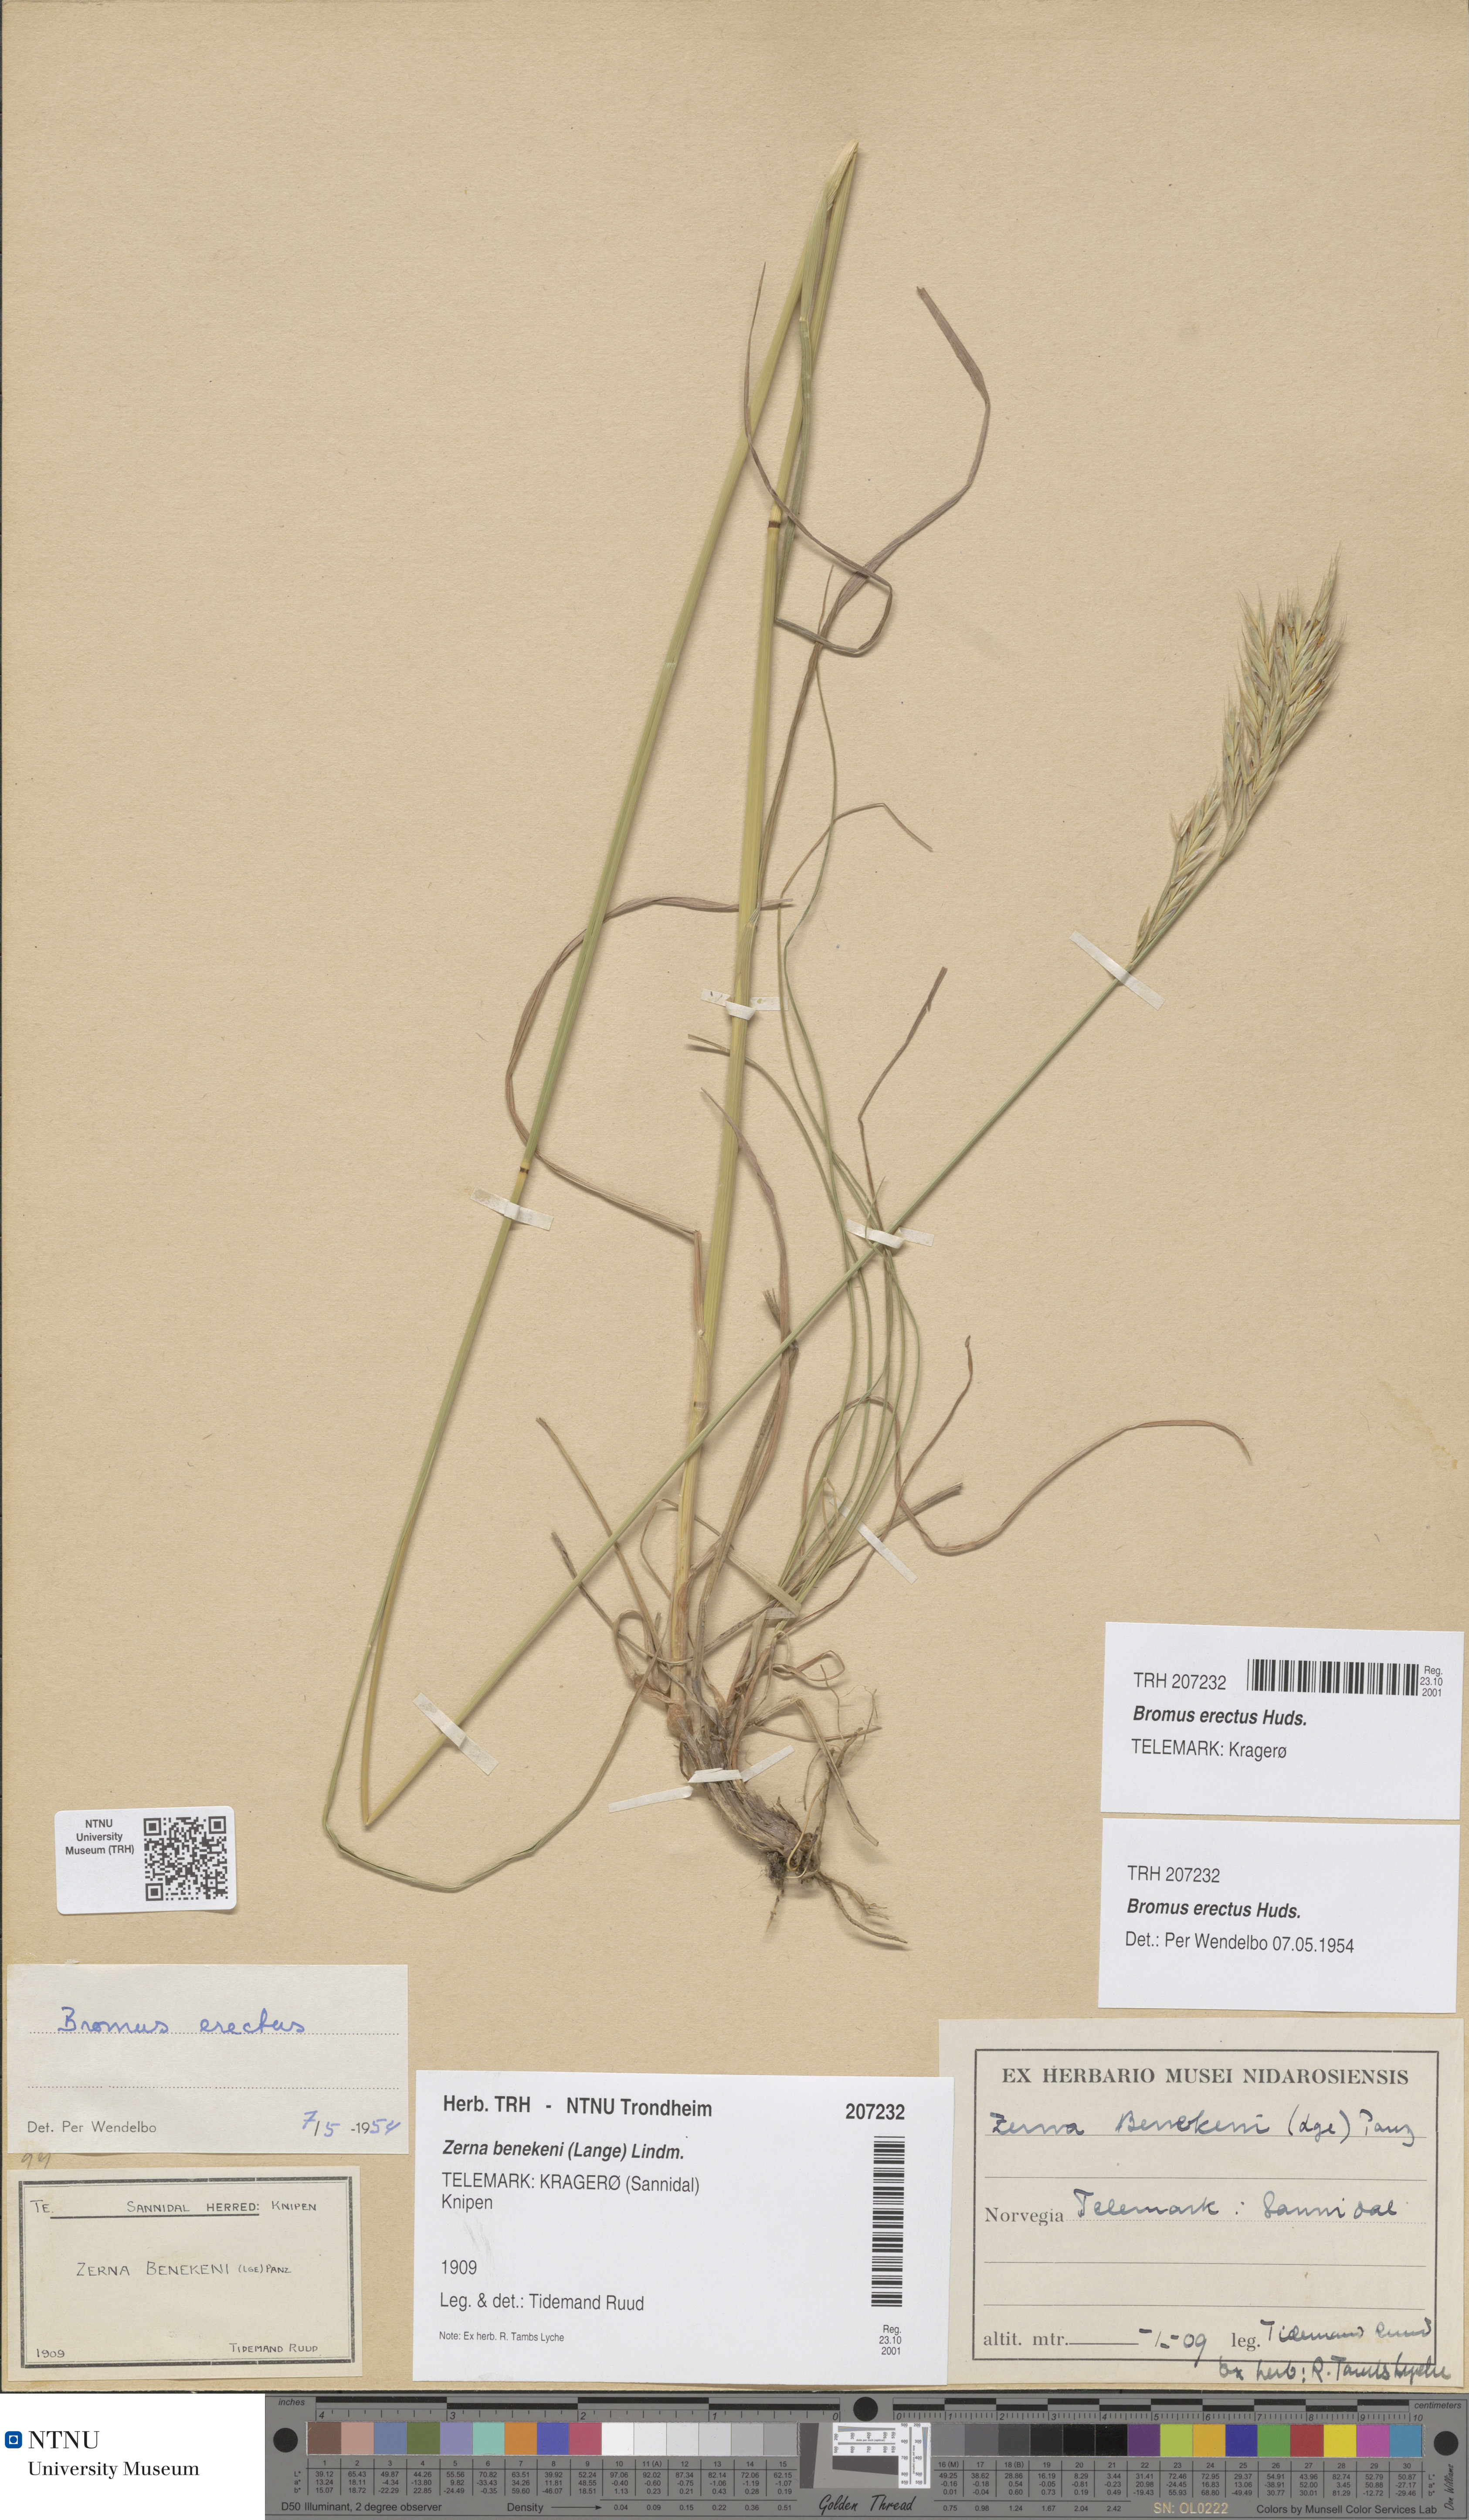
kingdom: Plantae
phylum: Tracheophyta
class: Liliopsida
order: Poales
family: Poaceae
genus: Bromus
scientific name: Bromus erectus
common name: Erect brome
